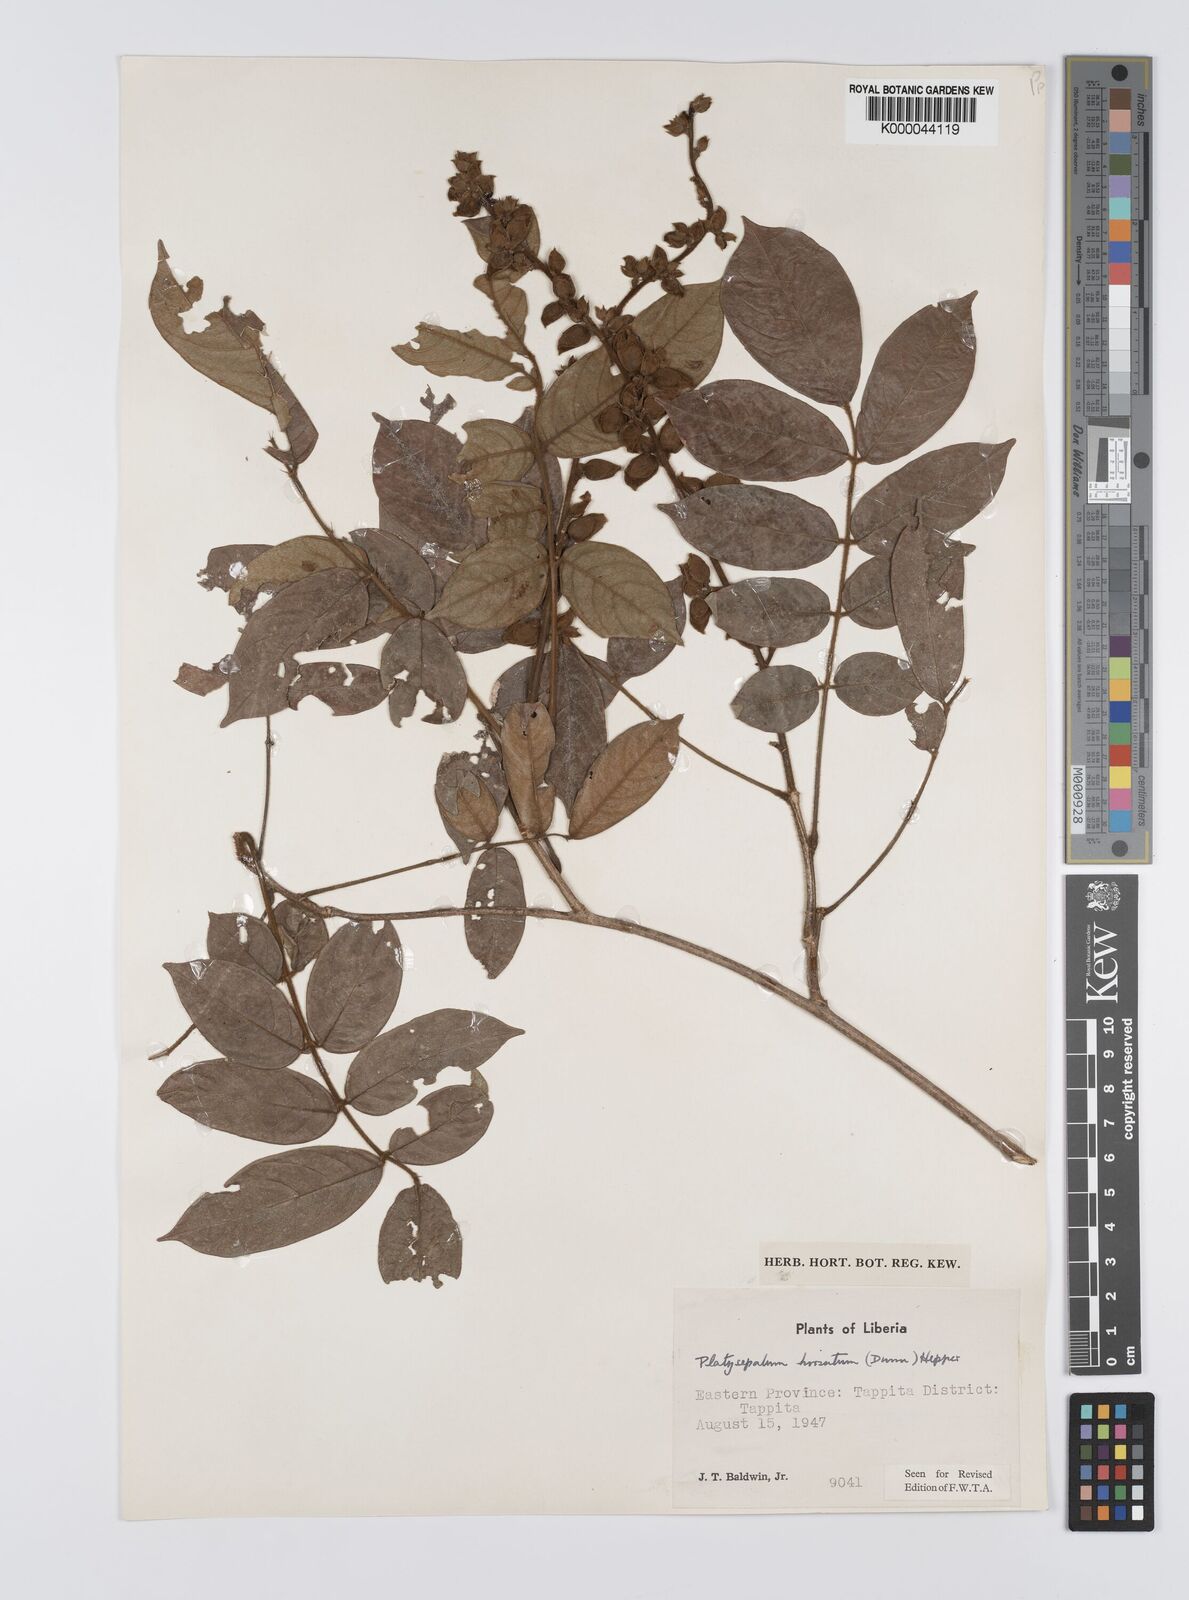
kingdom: Plantae
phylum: Tracheophyta
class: Magnoliopsida
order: Fabales
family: Fabaceae
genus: Platysepalum
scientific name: Platysepalum hirsutum
